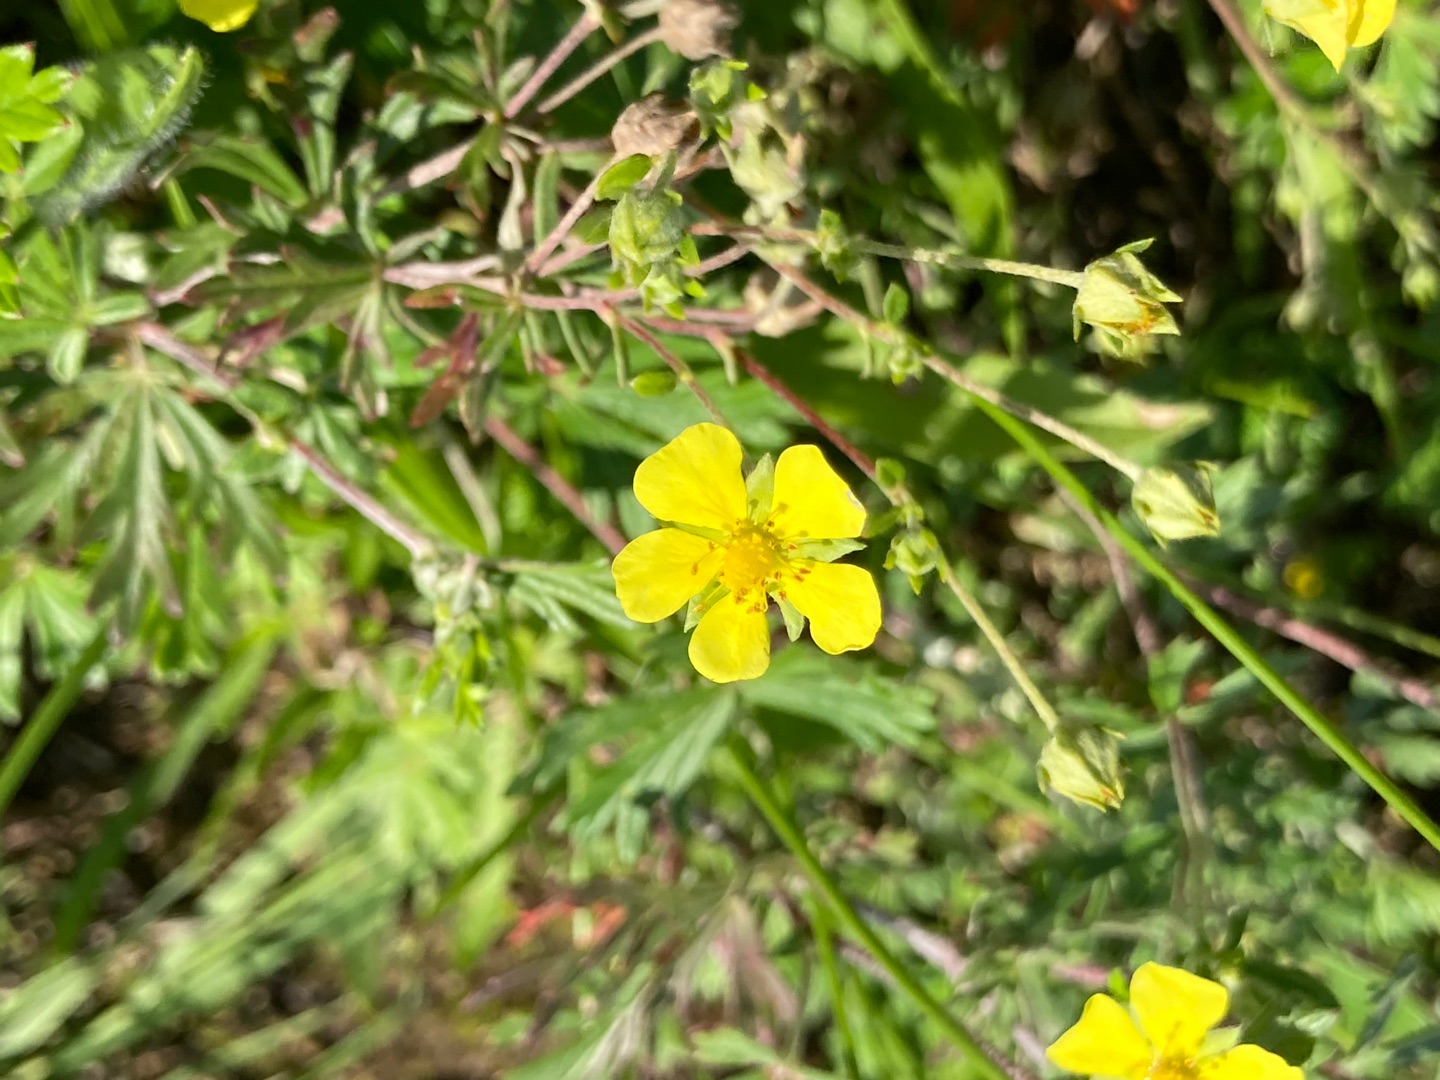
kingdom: Plantae
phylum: Tracheophyta
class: Magnoliopsida
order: Rosales
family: Rosaceae
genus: Potentilla
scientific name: Potentilla argentea
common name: Sølv-potentil
